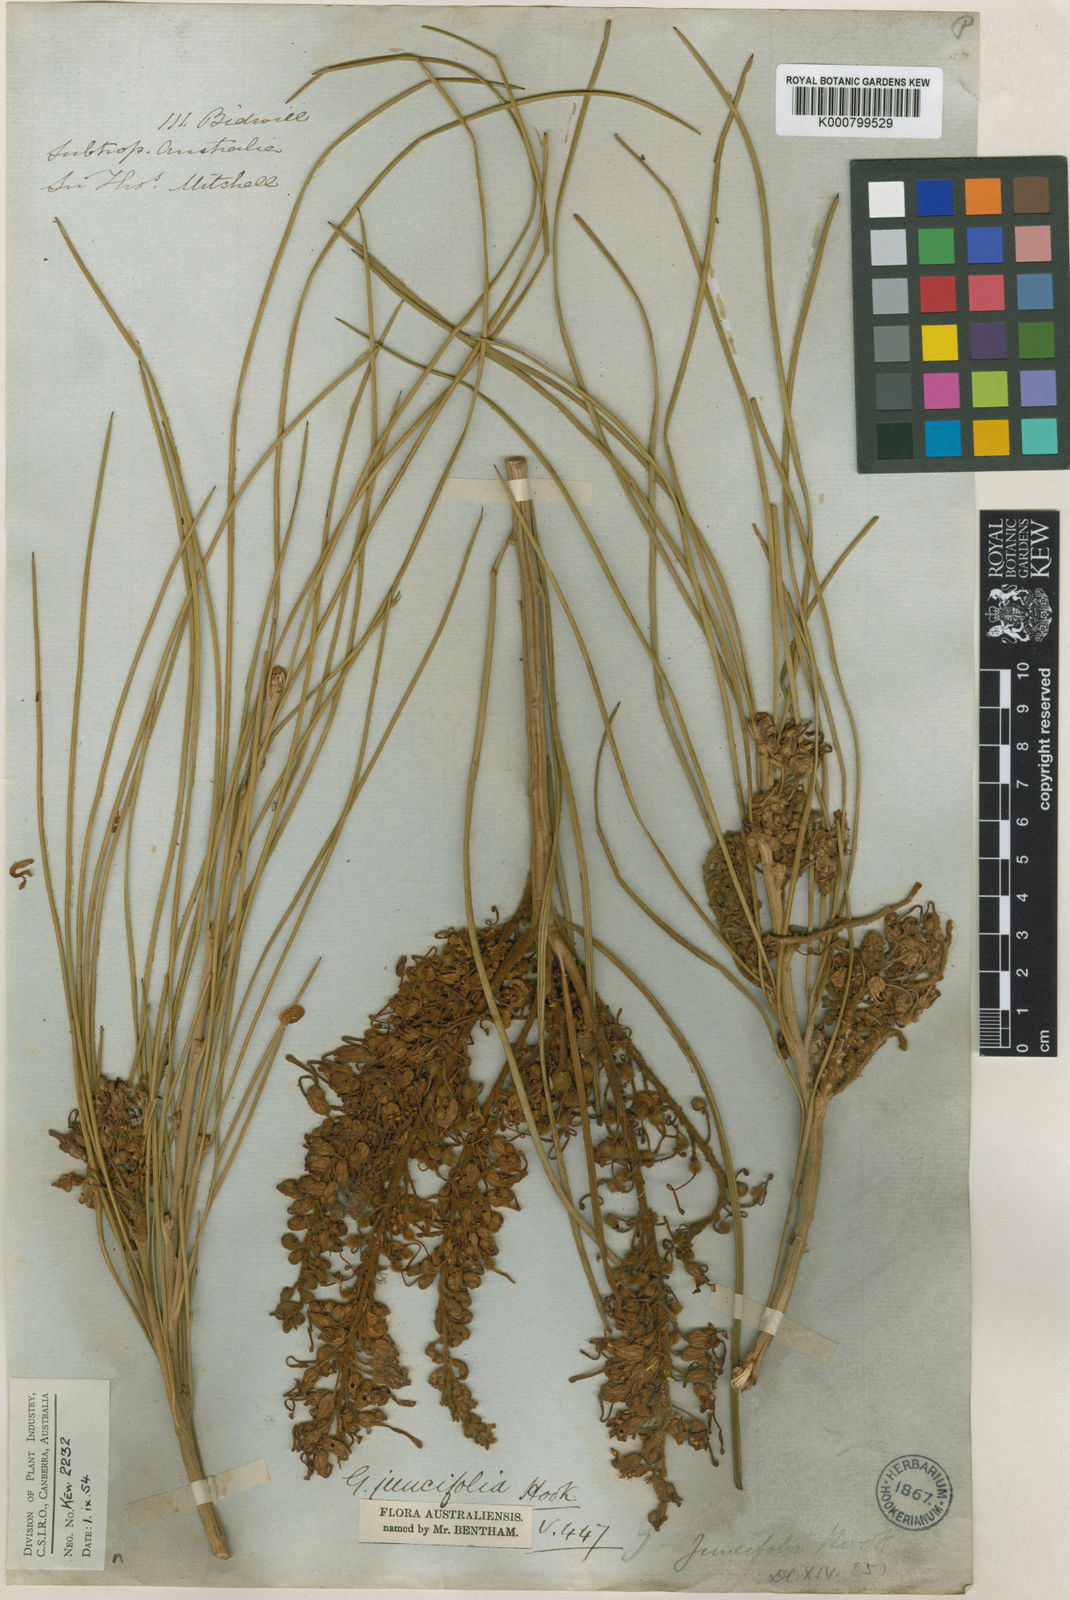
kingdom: Plantae
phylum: Tracheophyta
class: Magnoliopsida
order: Proteales
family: Proteaceae
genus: Grevillea
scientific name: Grevillea juncifolia
